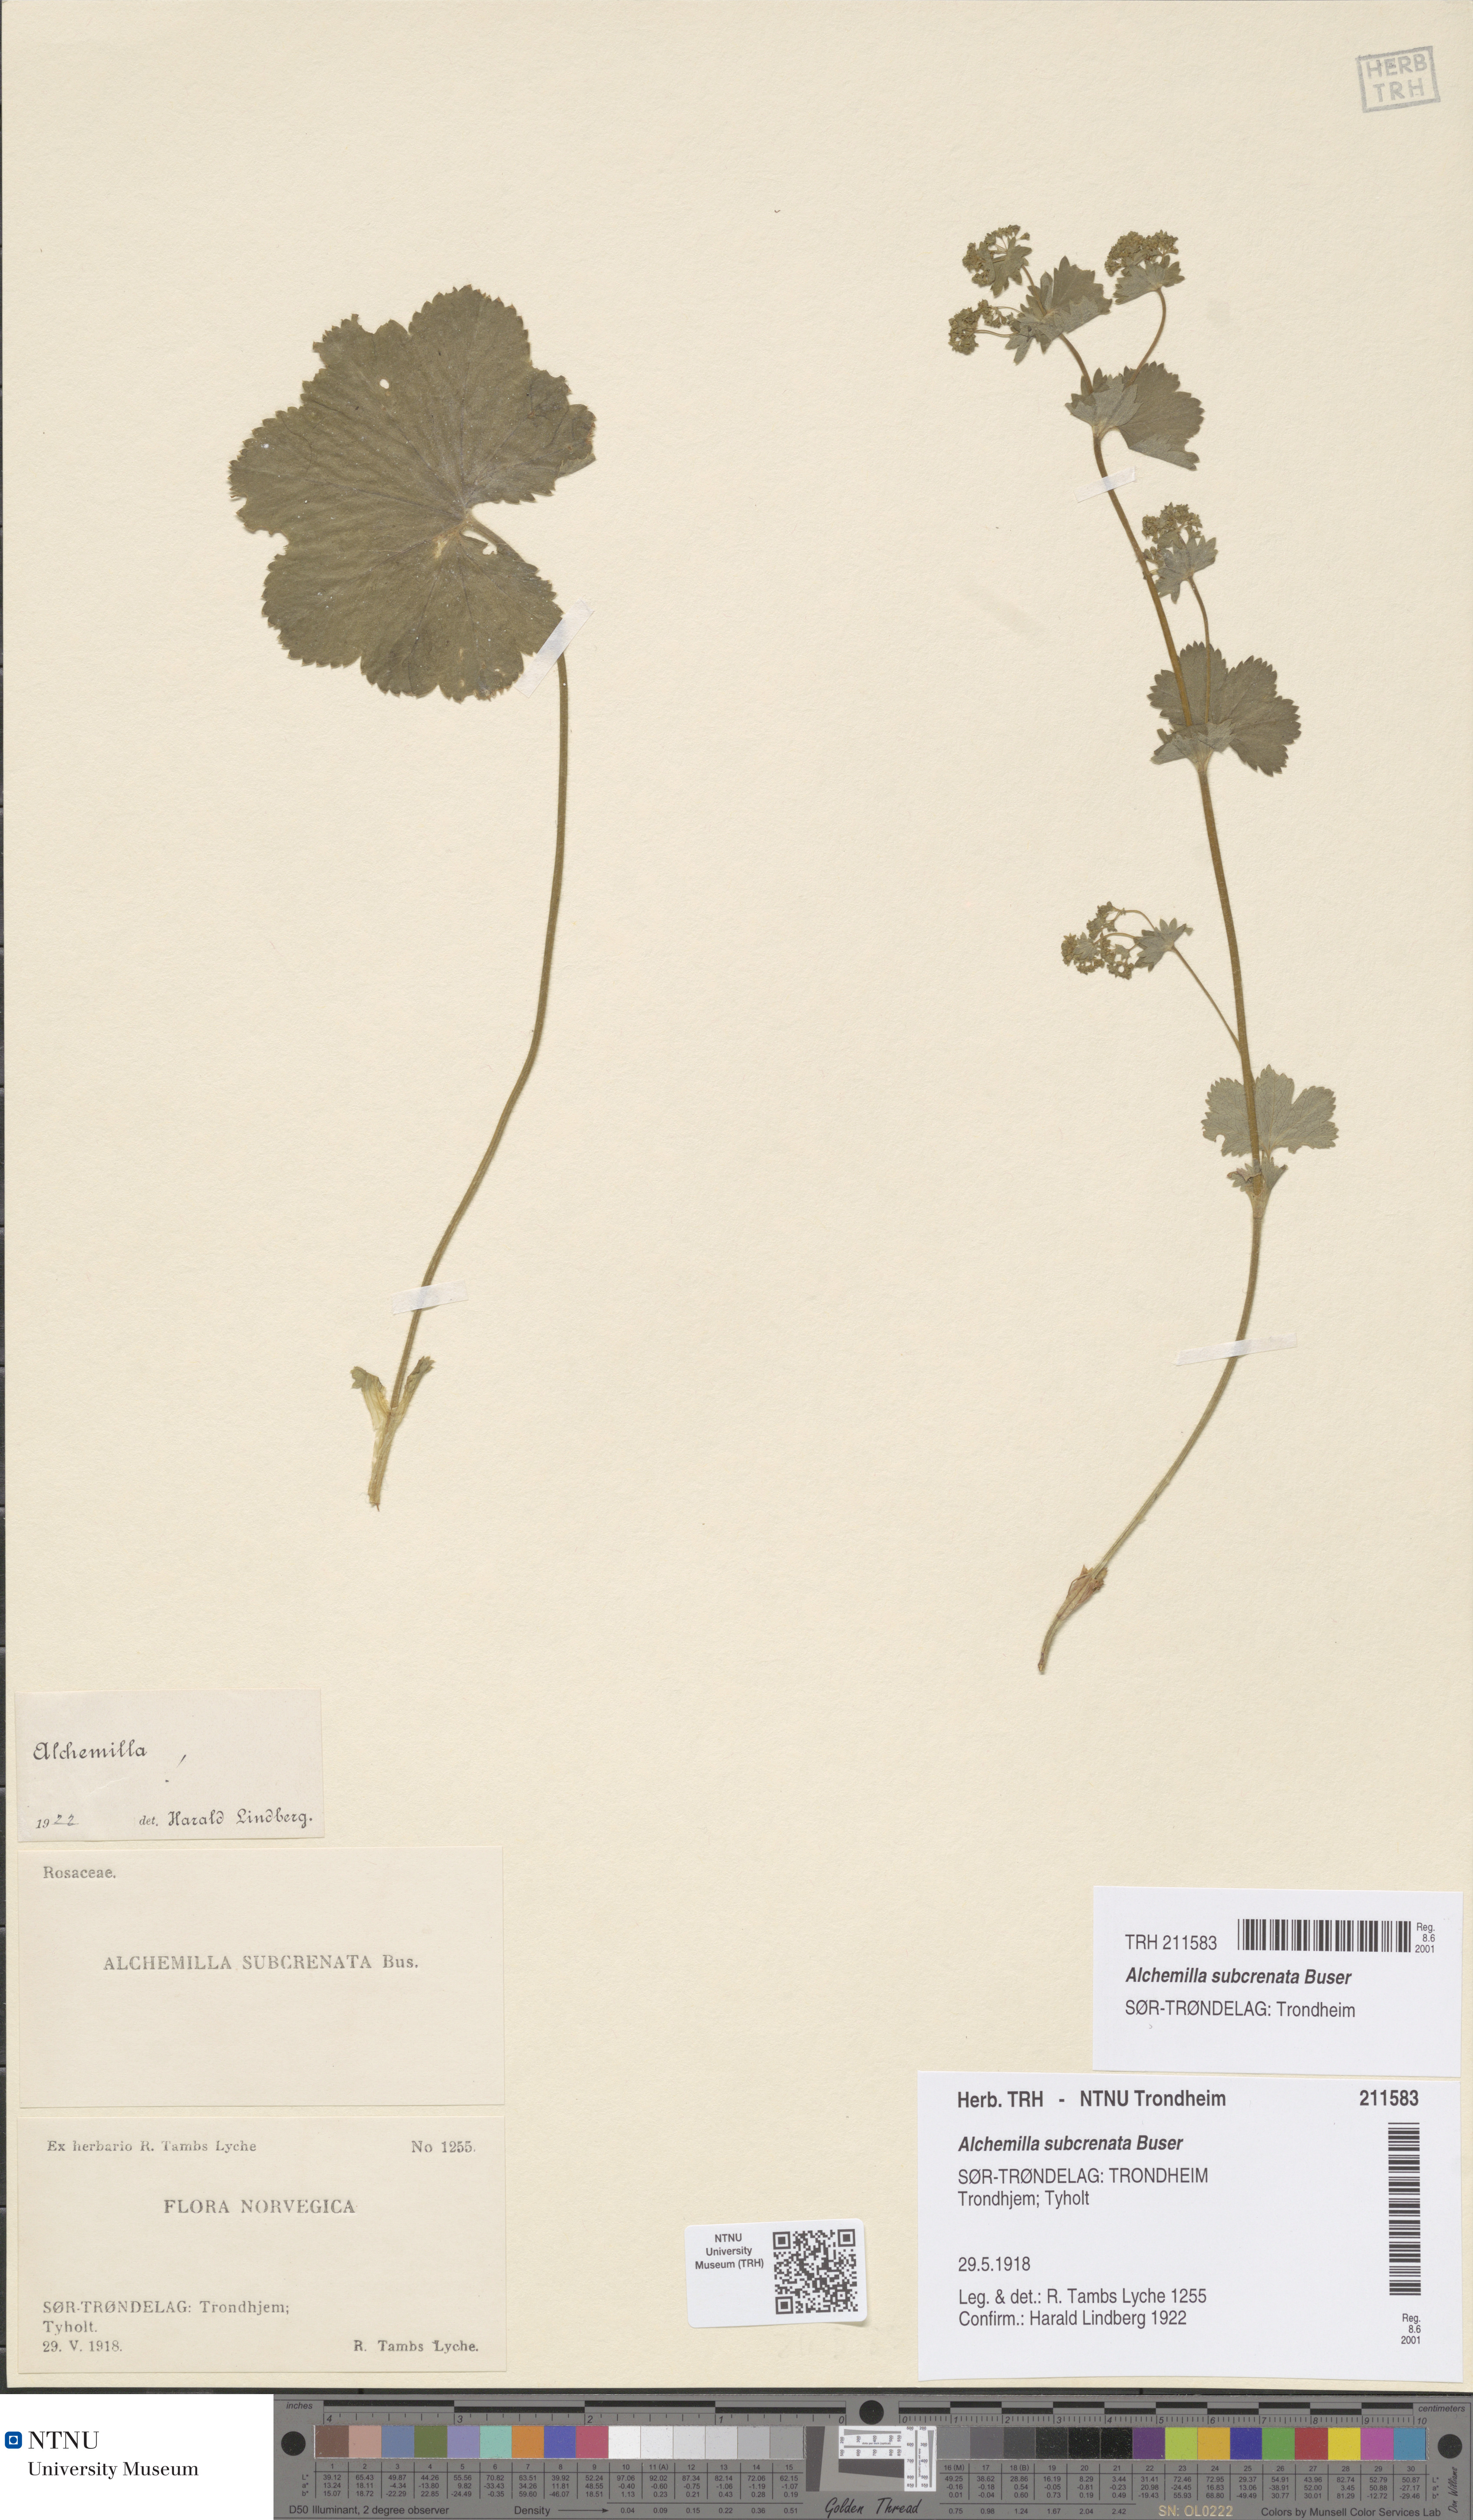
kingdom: Plantae
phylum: Tracheophyta
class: Magnoliopsida
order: Rosales
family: Rosaceae
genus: Alchemilla
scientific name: Alchemilla subcrenata
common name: Broadtooth lady's mantle
